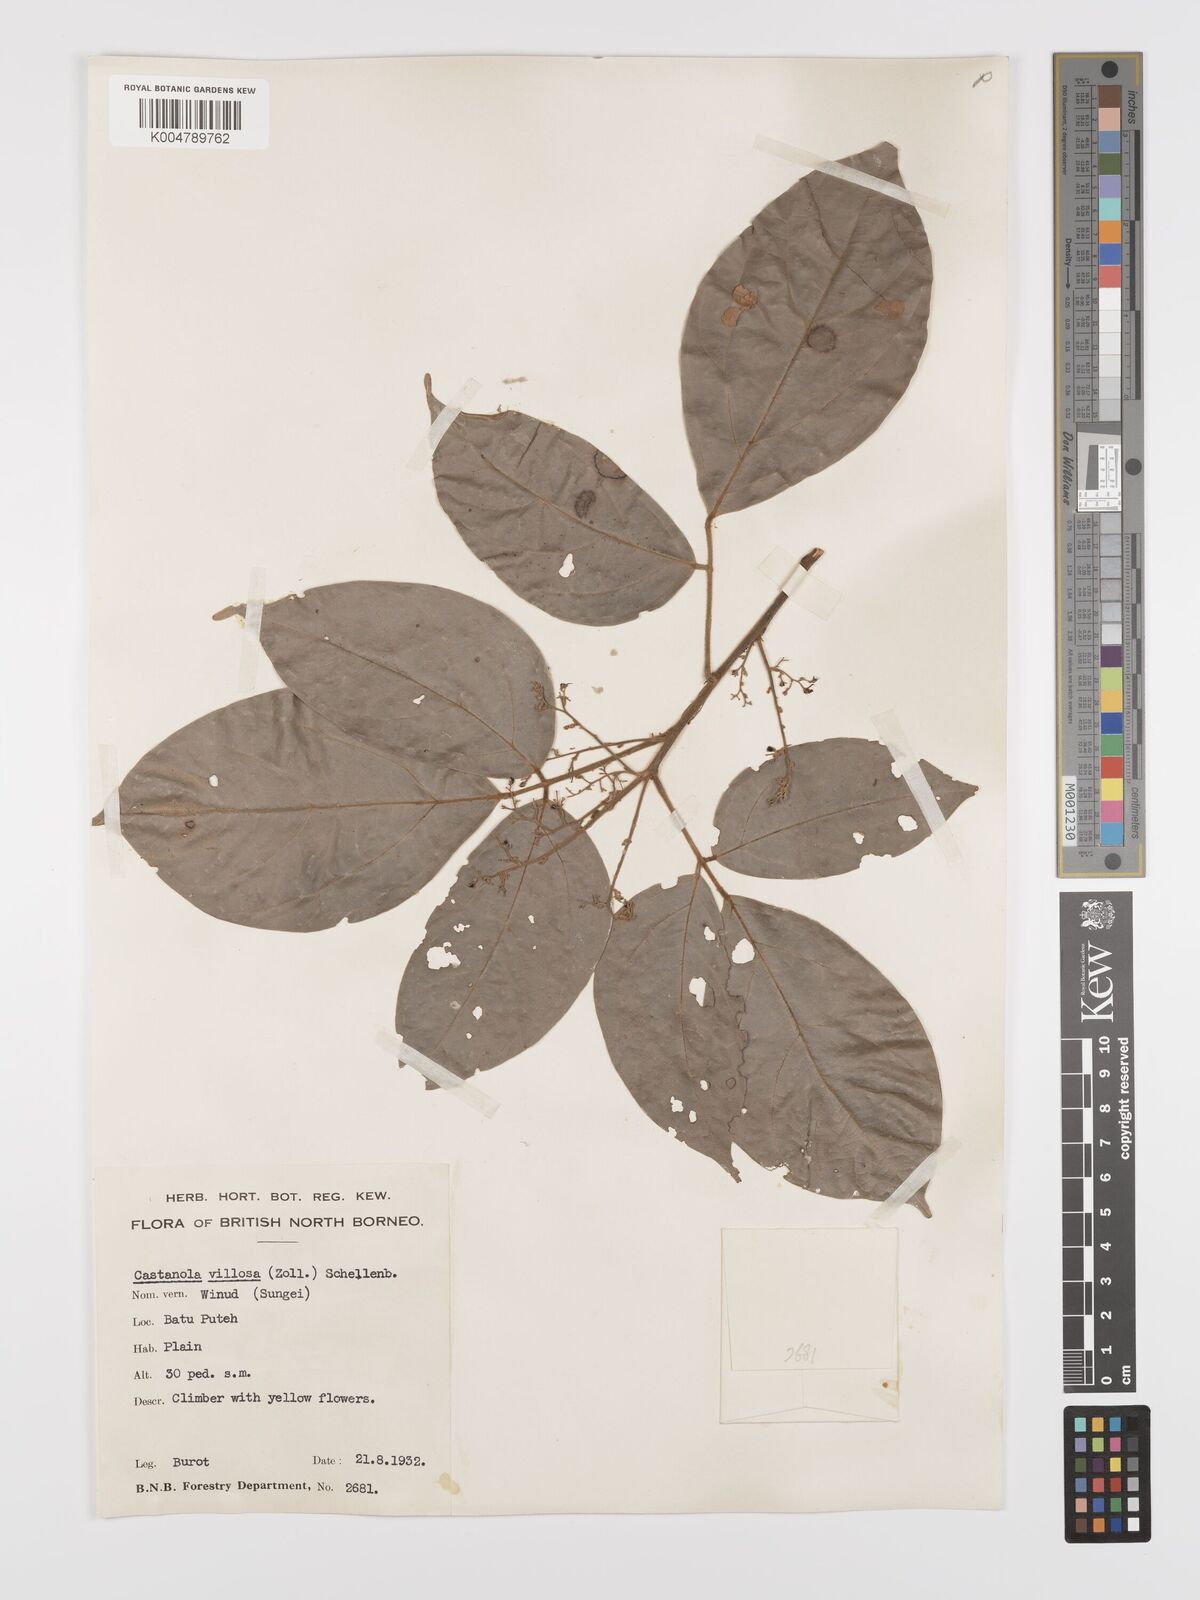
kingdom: Plantae
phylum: Tracheophyta
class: Magnoliopsida
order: Oxalidales
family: Connaraceae
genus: Agelaea
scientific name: Agelaea borneensis
